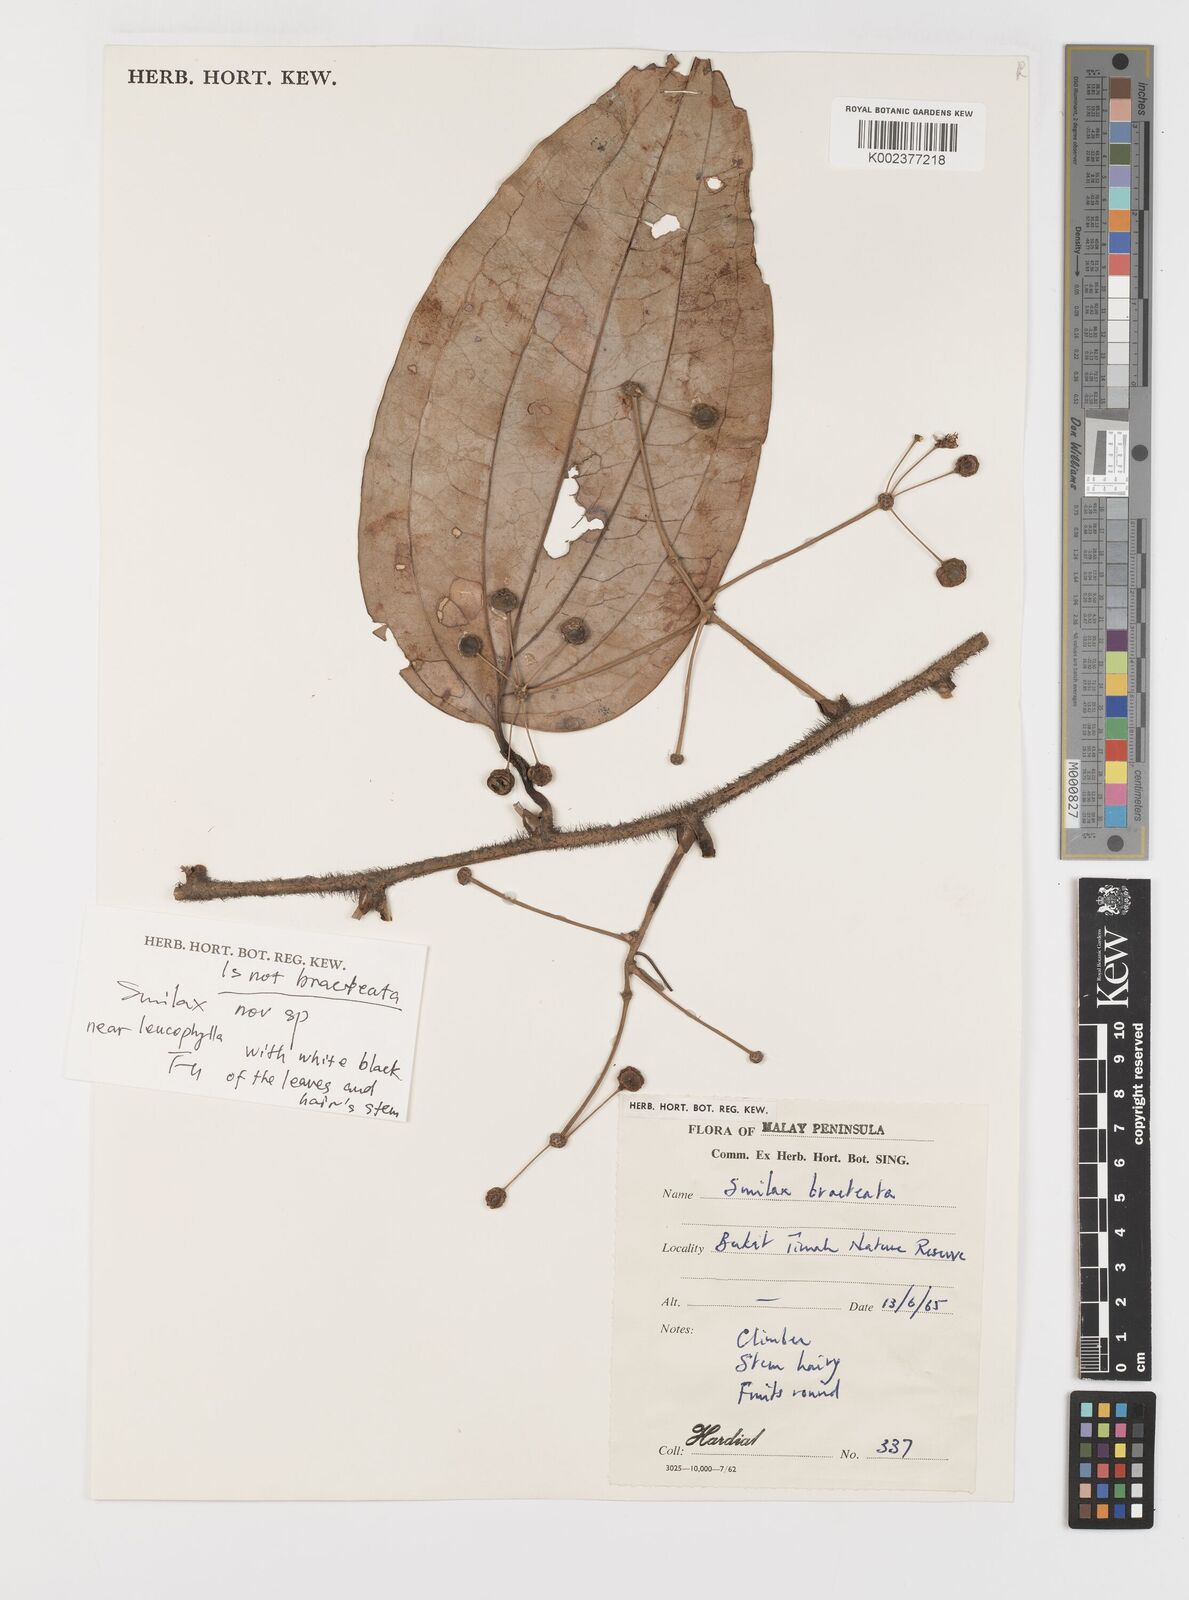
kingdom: Plantae
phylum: Tracheophyta
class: Liliopsida
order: Liliales
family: Smilacaceae
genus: Smilax
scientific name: Smilax bracteata
